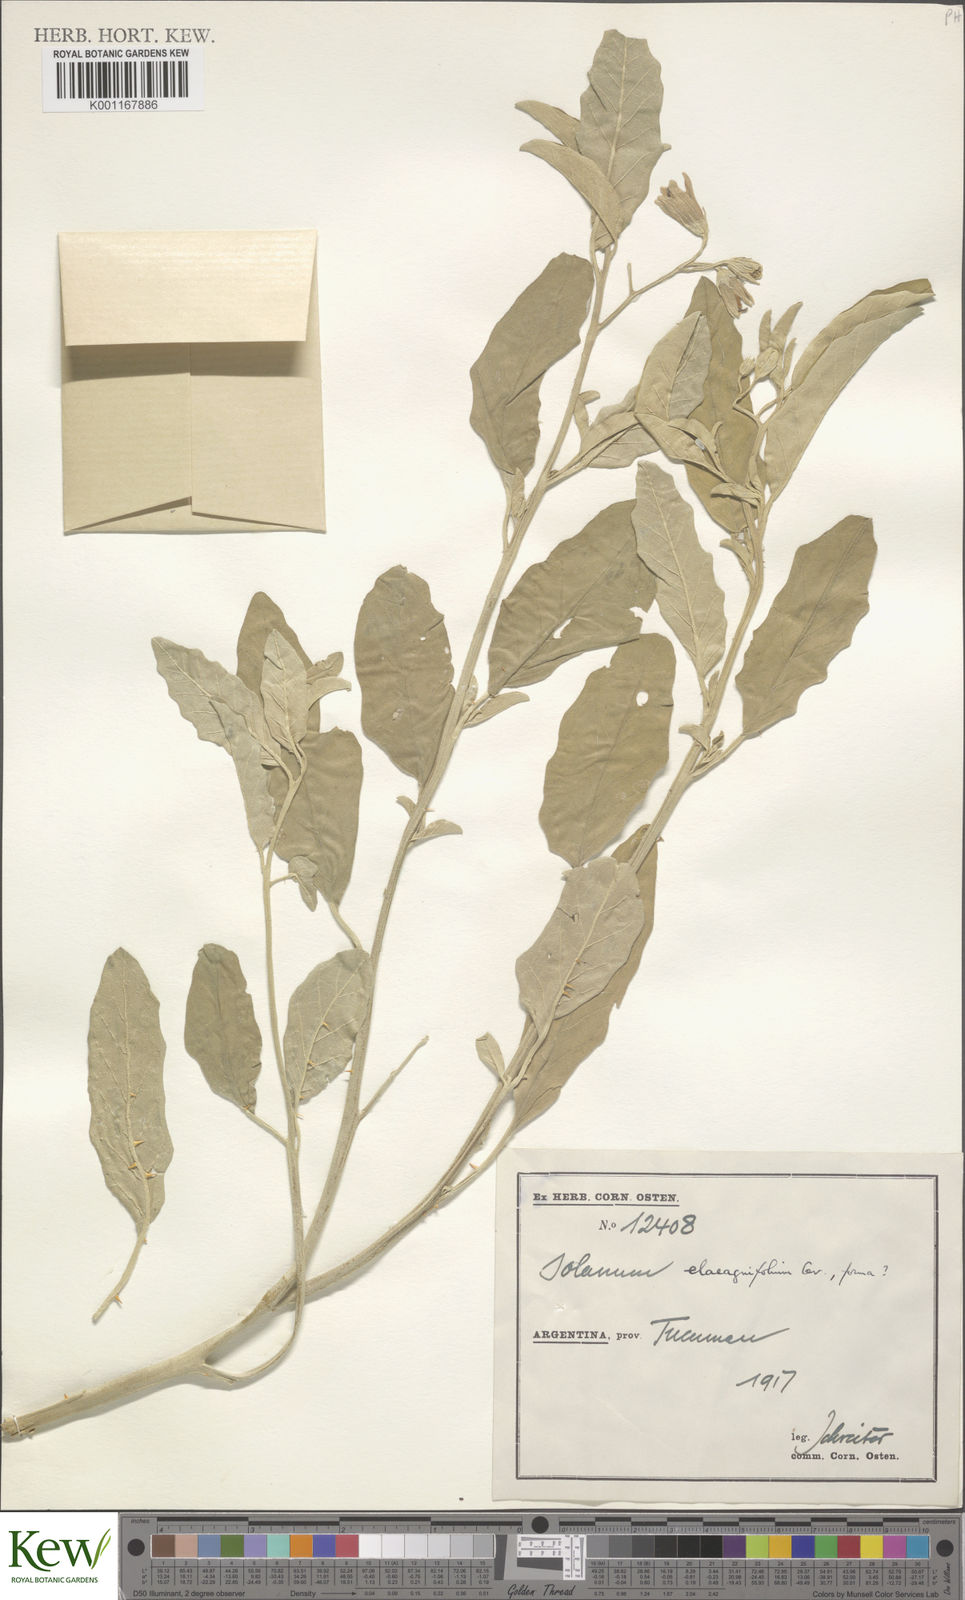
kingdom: Plantae
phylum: Tracheophyta
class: Magnoliopsida
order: Solanales
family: Solanaceae
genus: Solanum
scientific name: Solanum elaeagnifolium
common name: Silverleaf nightshade
